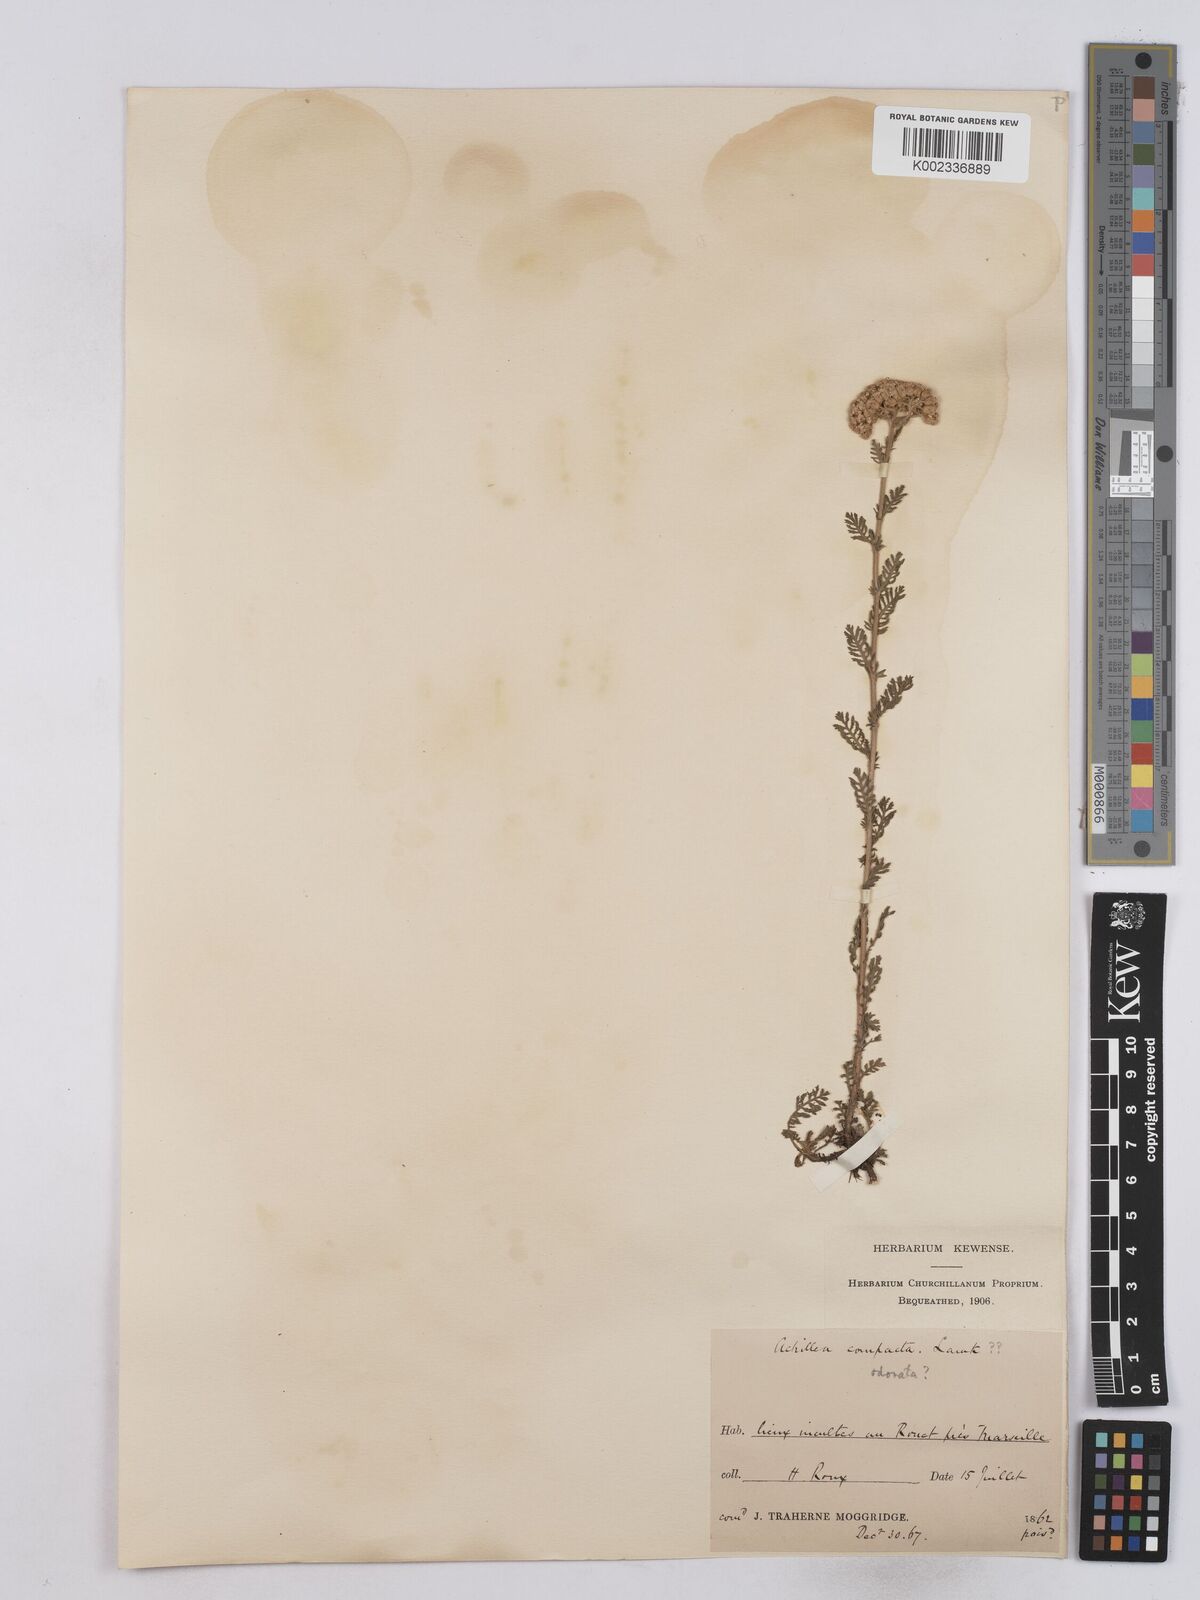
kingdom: Plantae
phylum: Tracheophyta
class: Magnoliopsida
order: Asterales
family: Asteraceae
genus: Achillea
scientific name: Achillea odorata
